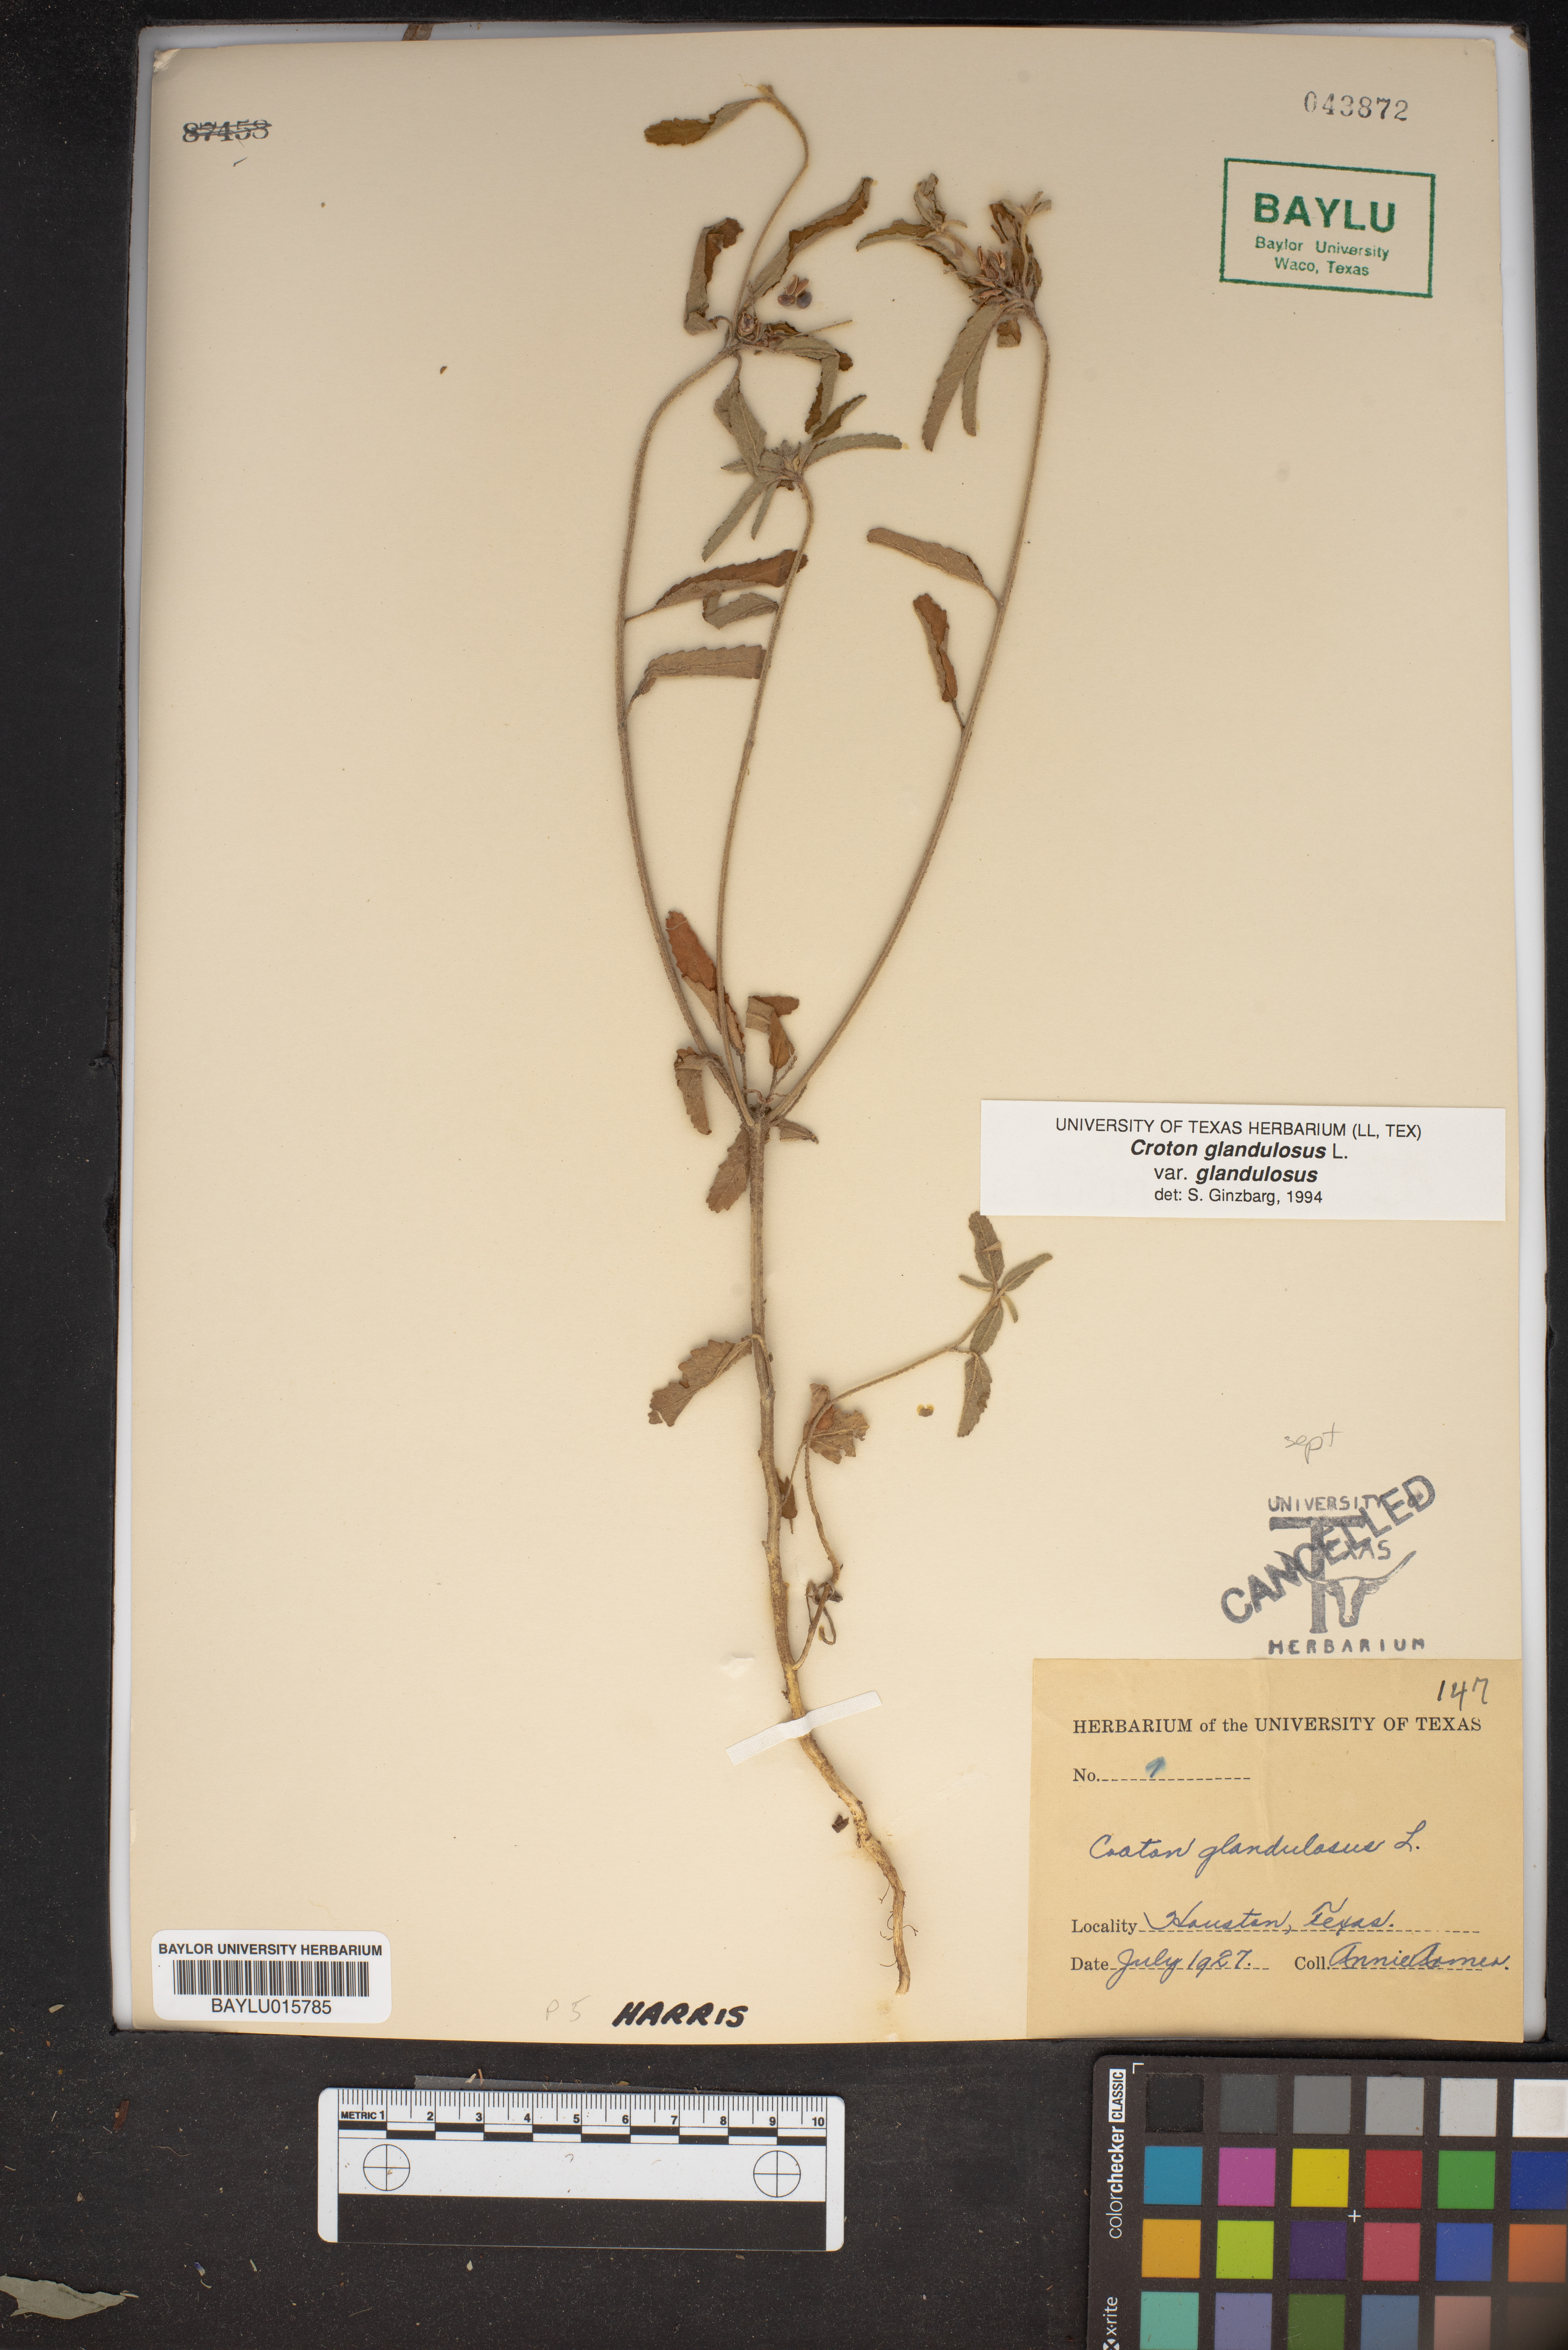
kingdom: Plantae
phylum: Tracheophyta
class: Magnoliopsida
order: Malpighiales
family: Euphorbiaceae
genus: Croton
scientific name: Croton glandulosus
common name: Tropic croton
